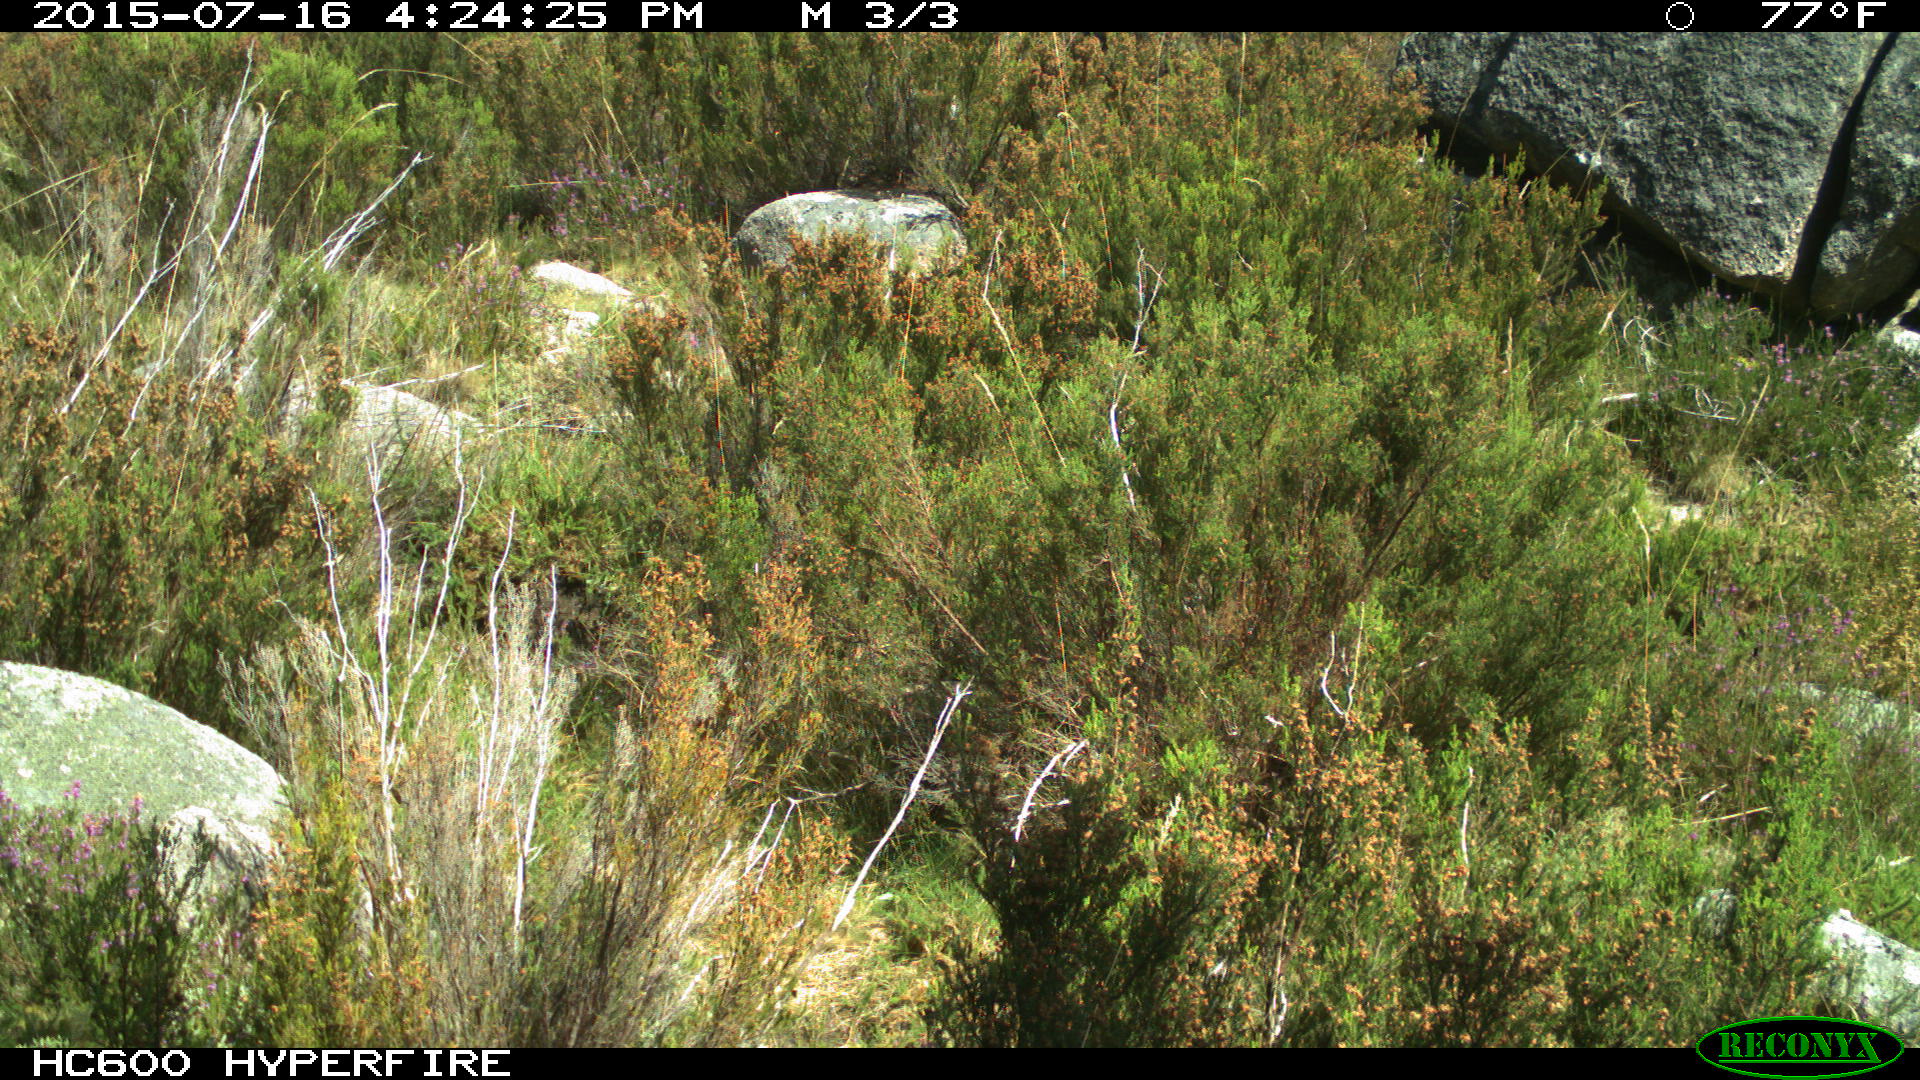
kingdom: Animalia
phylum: Chordata
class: Mammalia
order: Artiodactyla
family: Bovidae
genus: Bos
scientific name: Bos taurus
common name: Domesticated cattle
